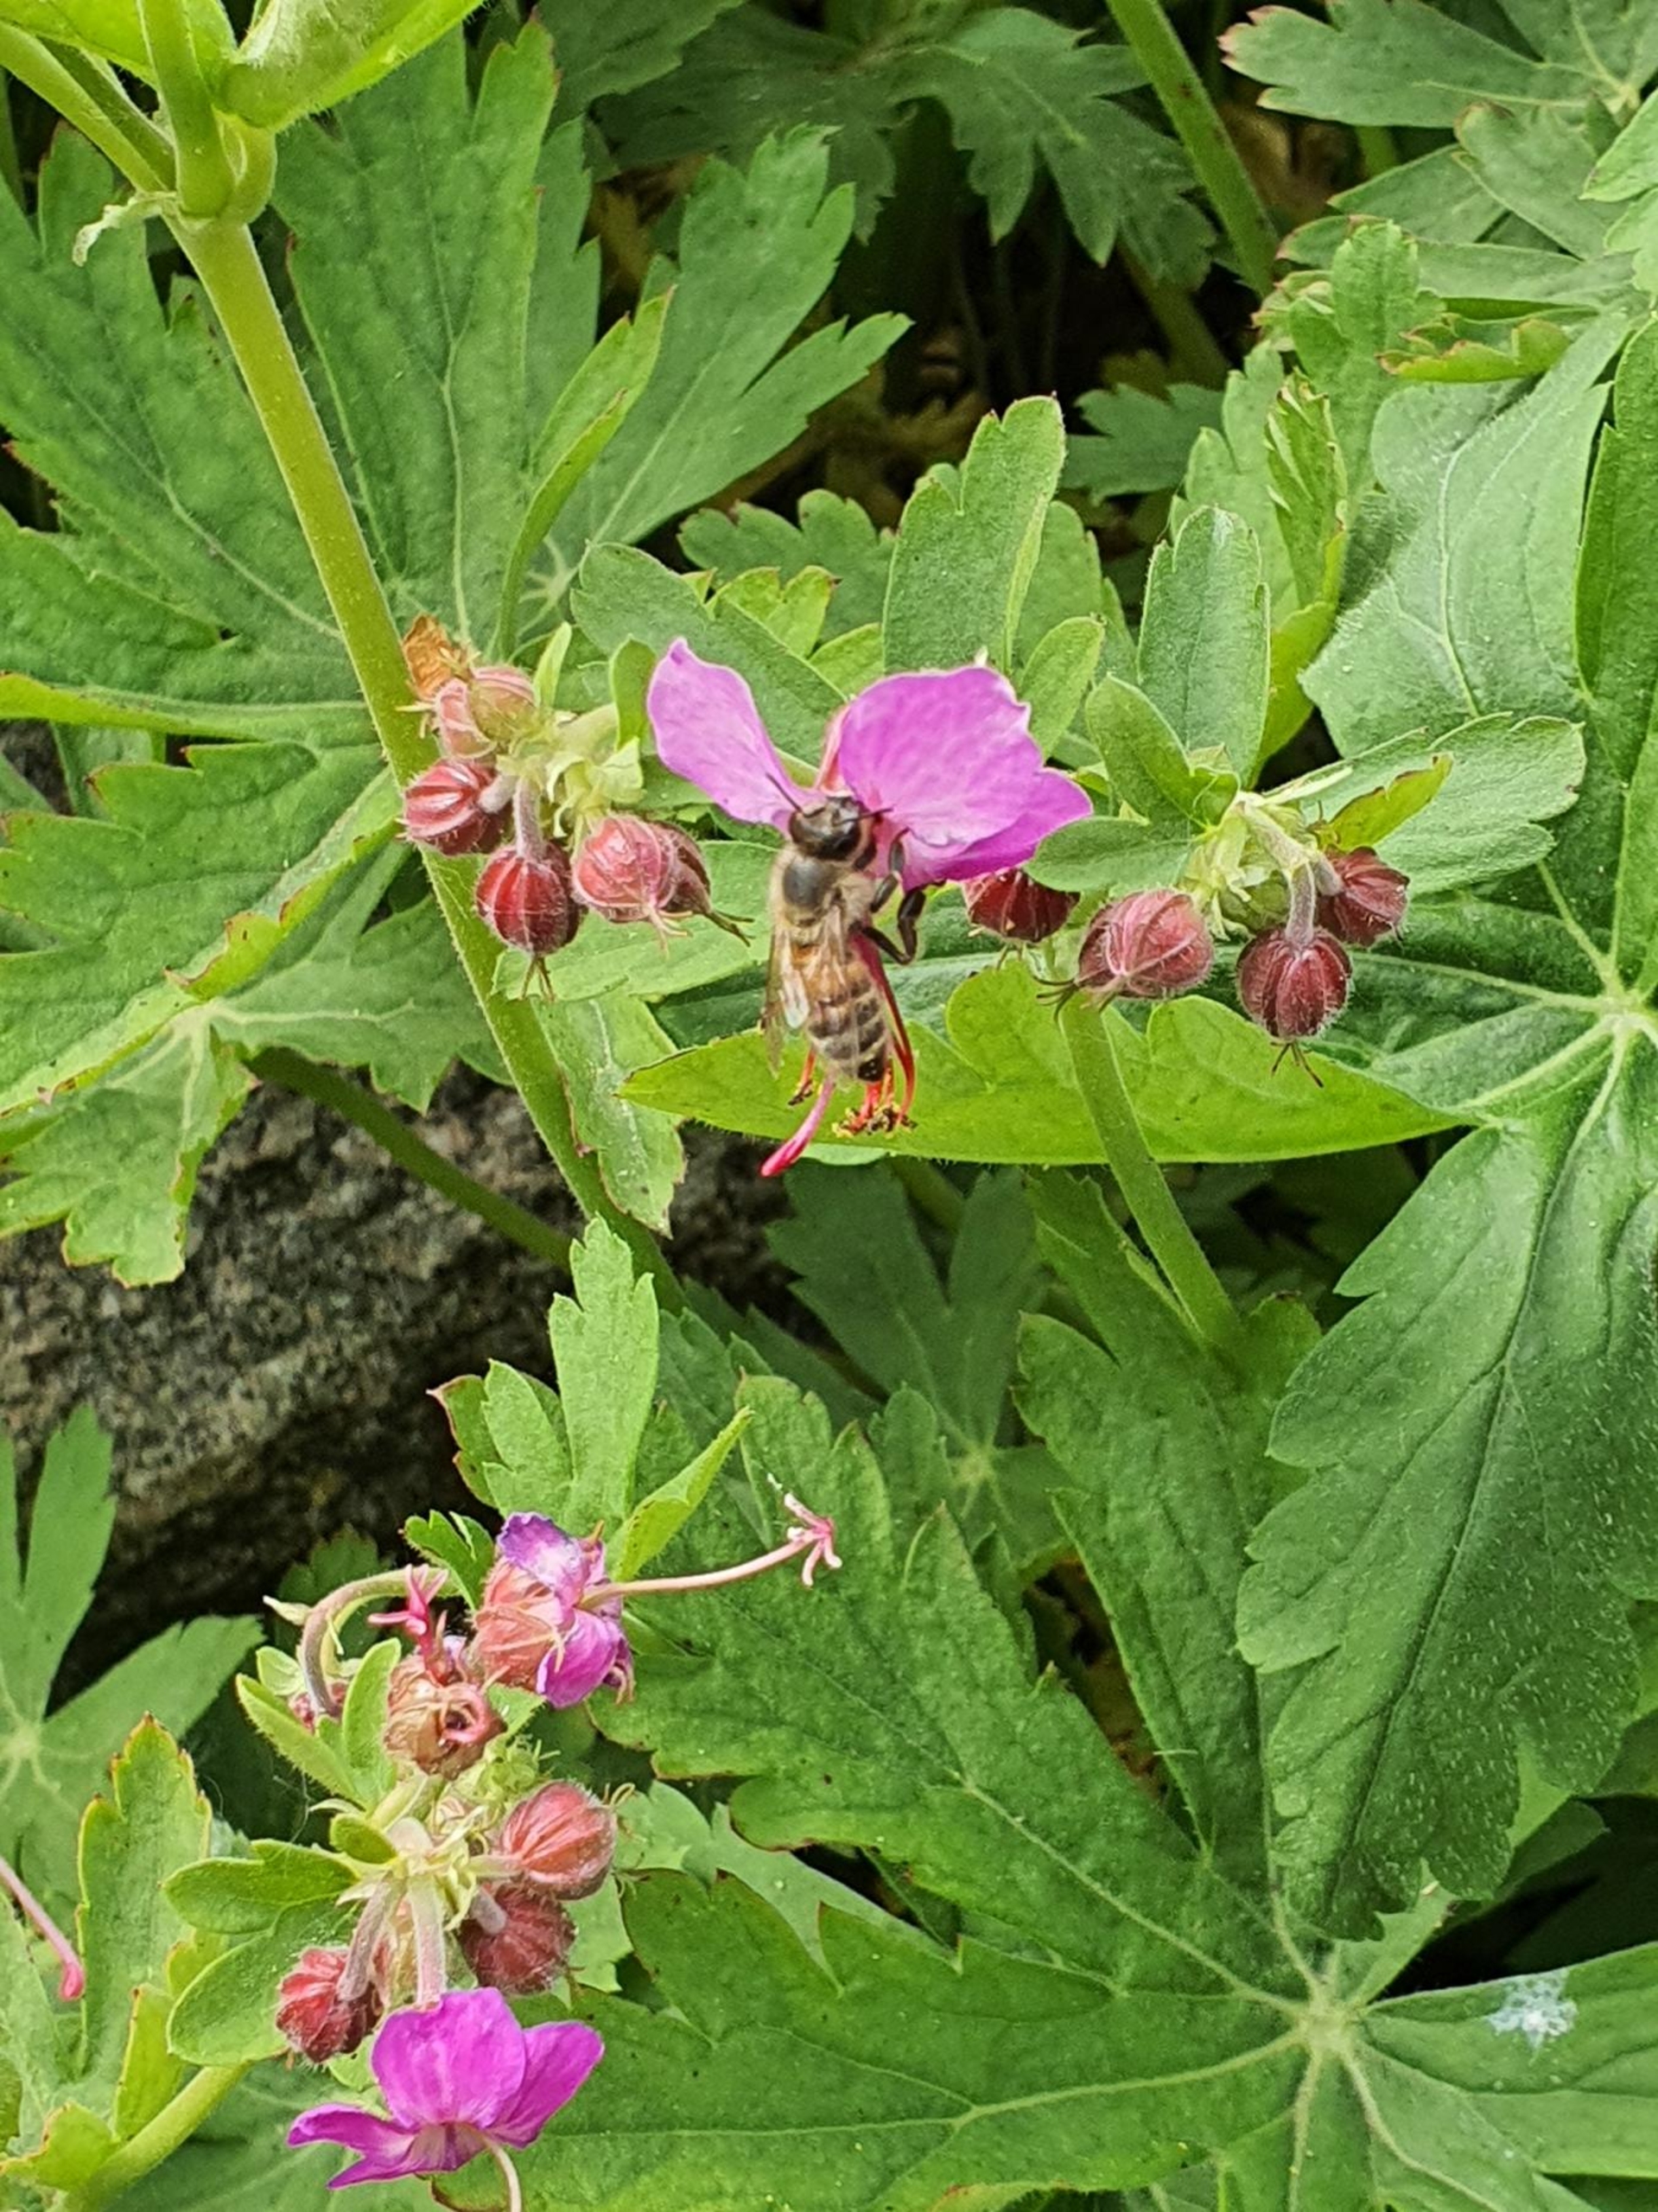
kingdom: Animalia
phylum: Arthropoda
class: Insecta
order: Hymenoptera
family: Apidae
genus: Apis
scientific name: Apis mellifera
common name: Honningbi
